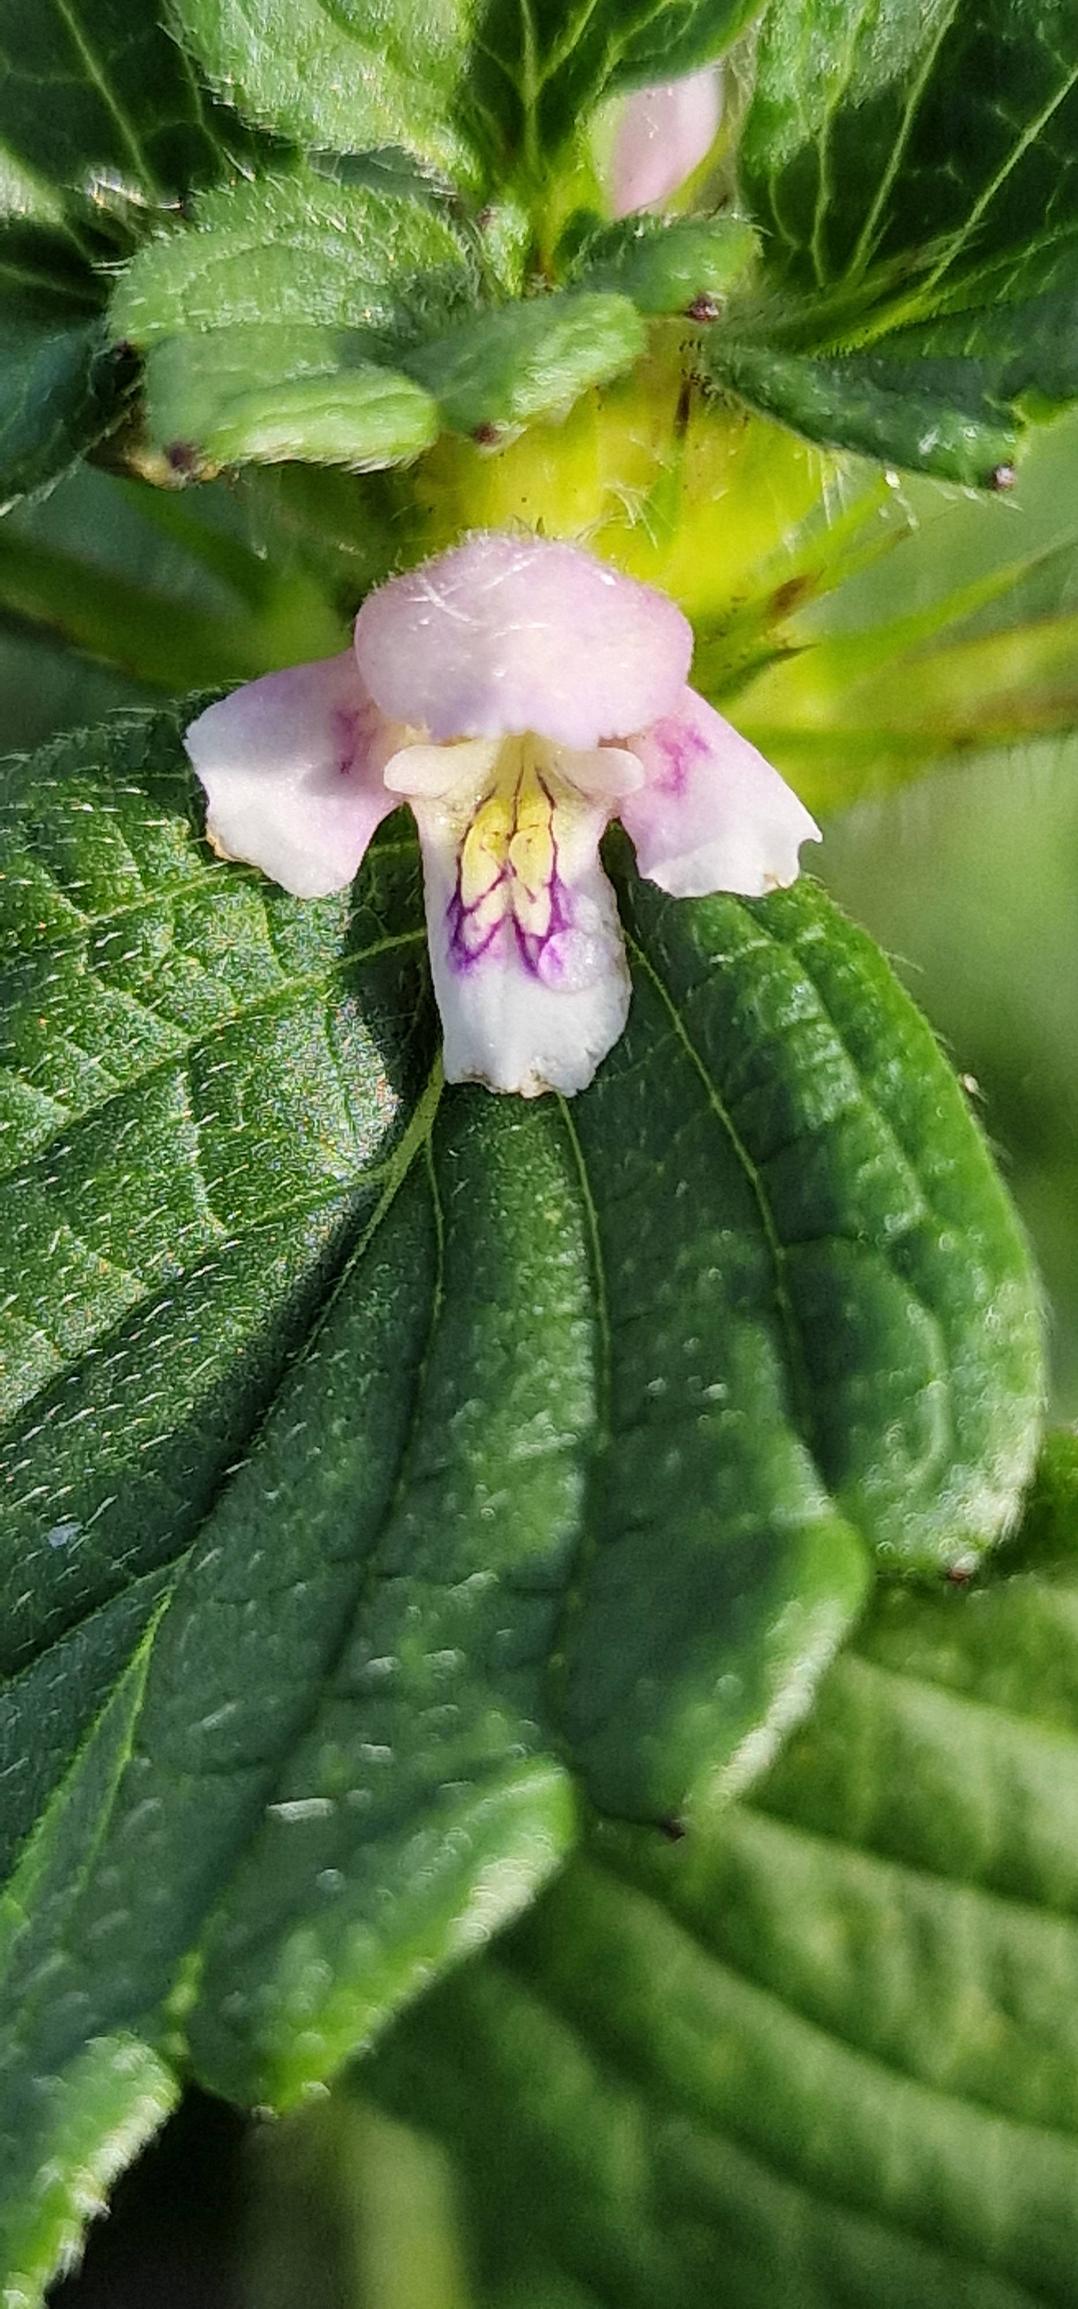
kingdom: Plantae
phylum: Tracheophyta
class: Magnoliopsida
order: Lamiales
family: Lamiaceae
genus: Galeopsis
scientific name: Galeopsis tetrahit
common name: Almindelig hanekro
